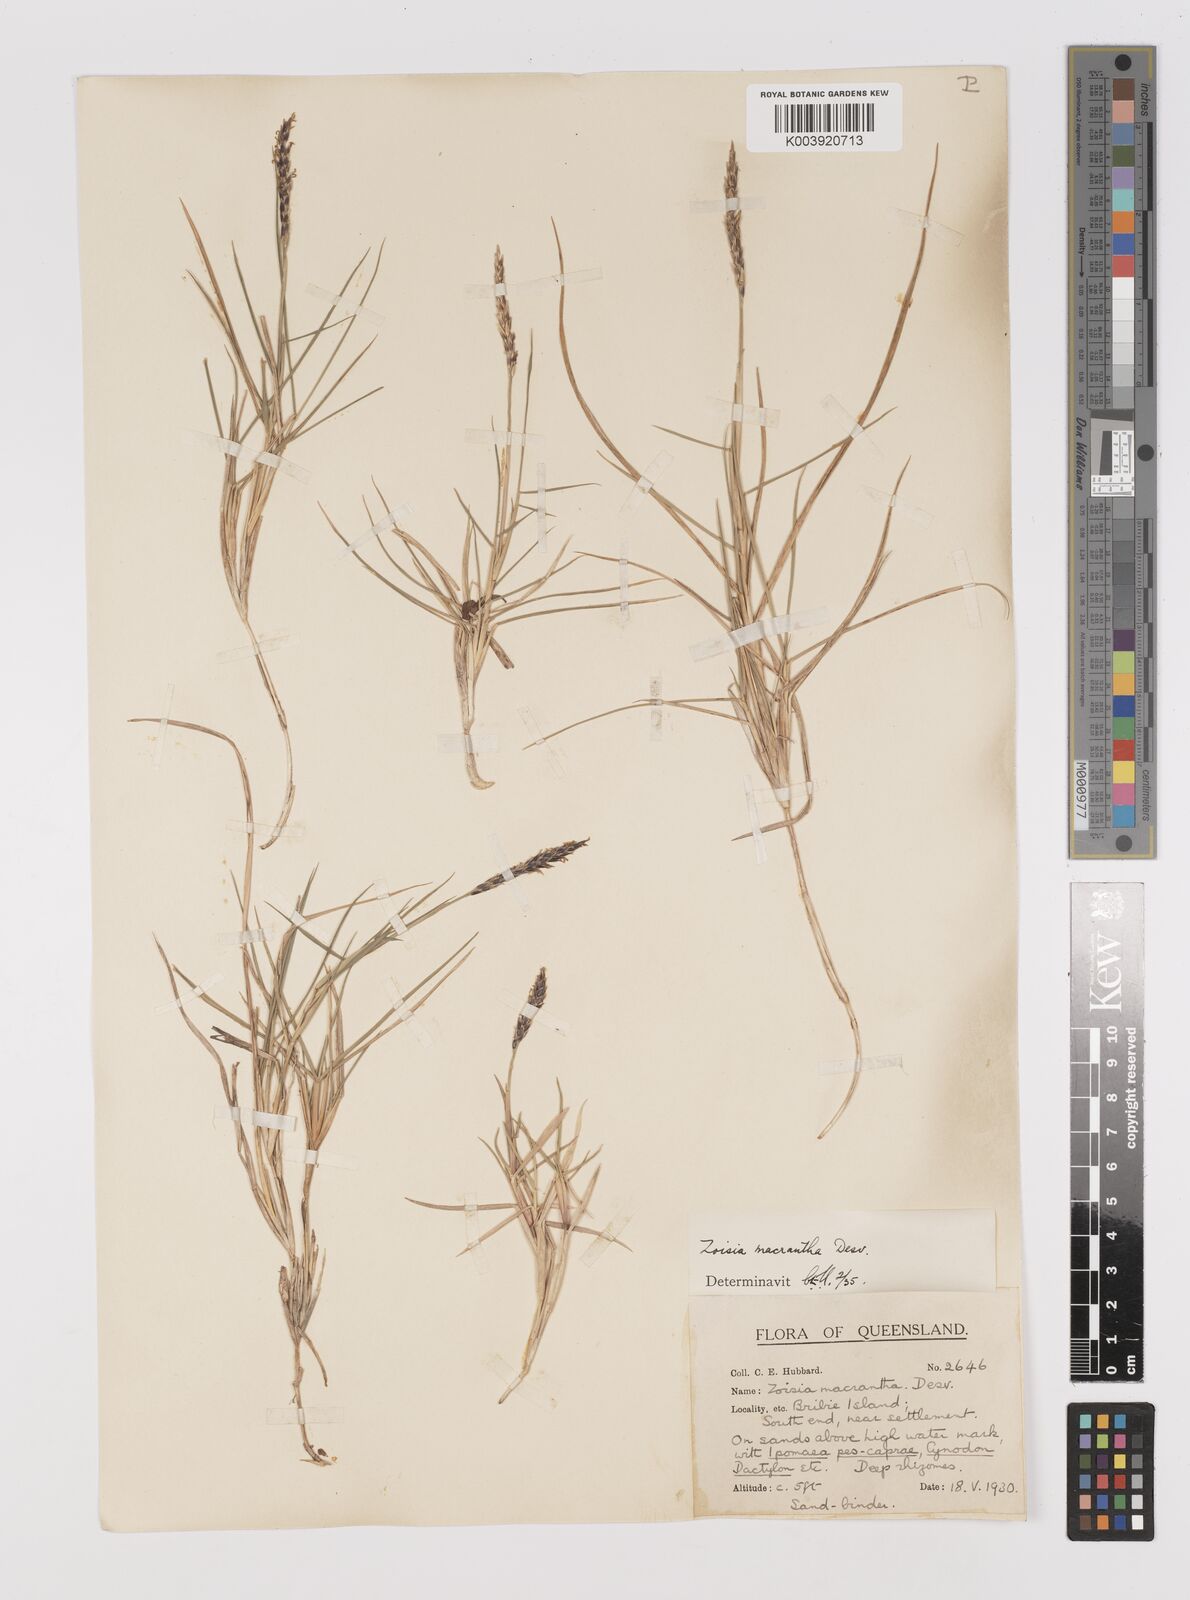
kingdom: Plantae
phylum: Tracheophyta
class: Liliopsida
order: Poales
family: Poaceae
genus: Zoysia
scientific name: Zoysia macrantha
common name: Korean lawn grass
